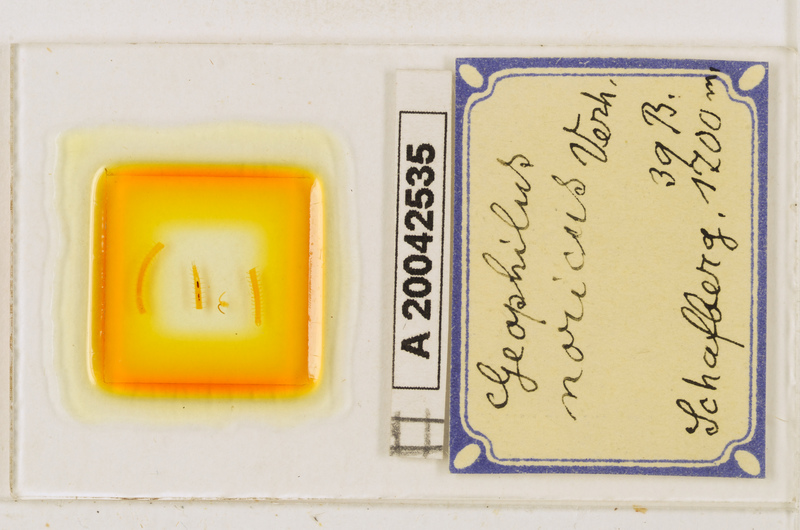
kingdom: Animalia
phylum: Arthropoda
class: Chilopoda
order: Geophilomorpha
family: Geophilidae
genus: Geophilus
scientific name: Geophilus oligopus
